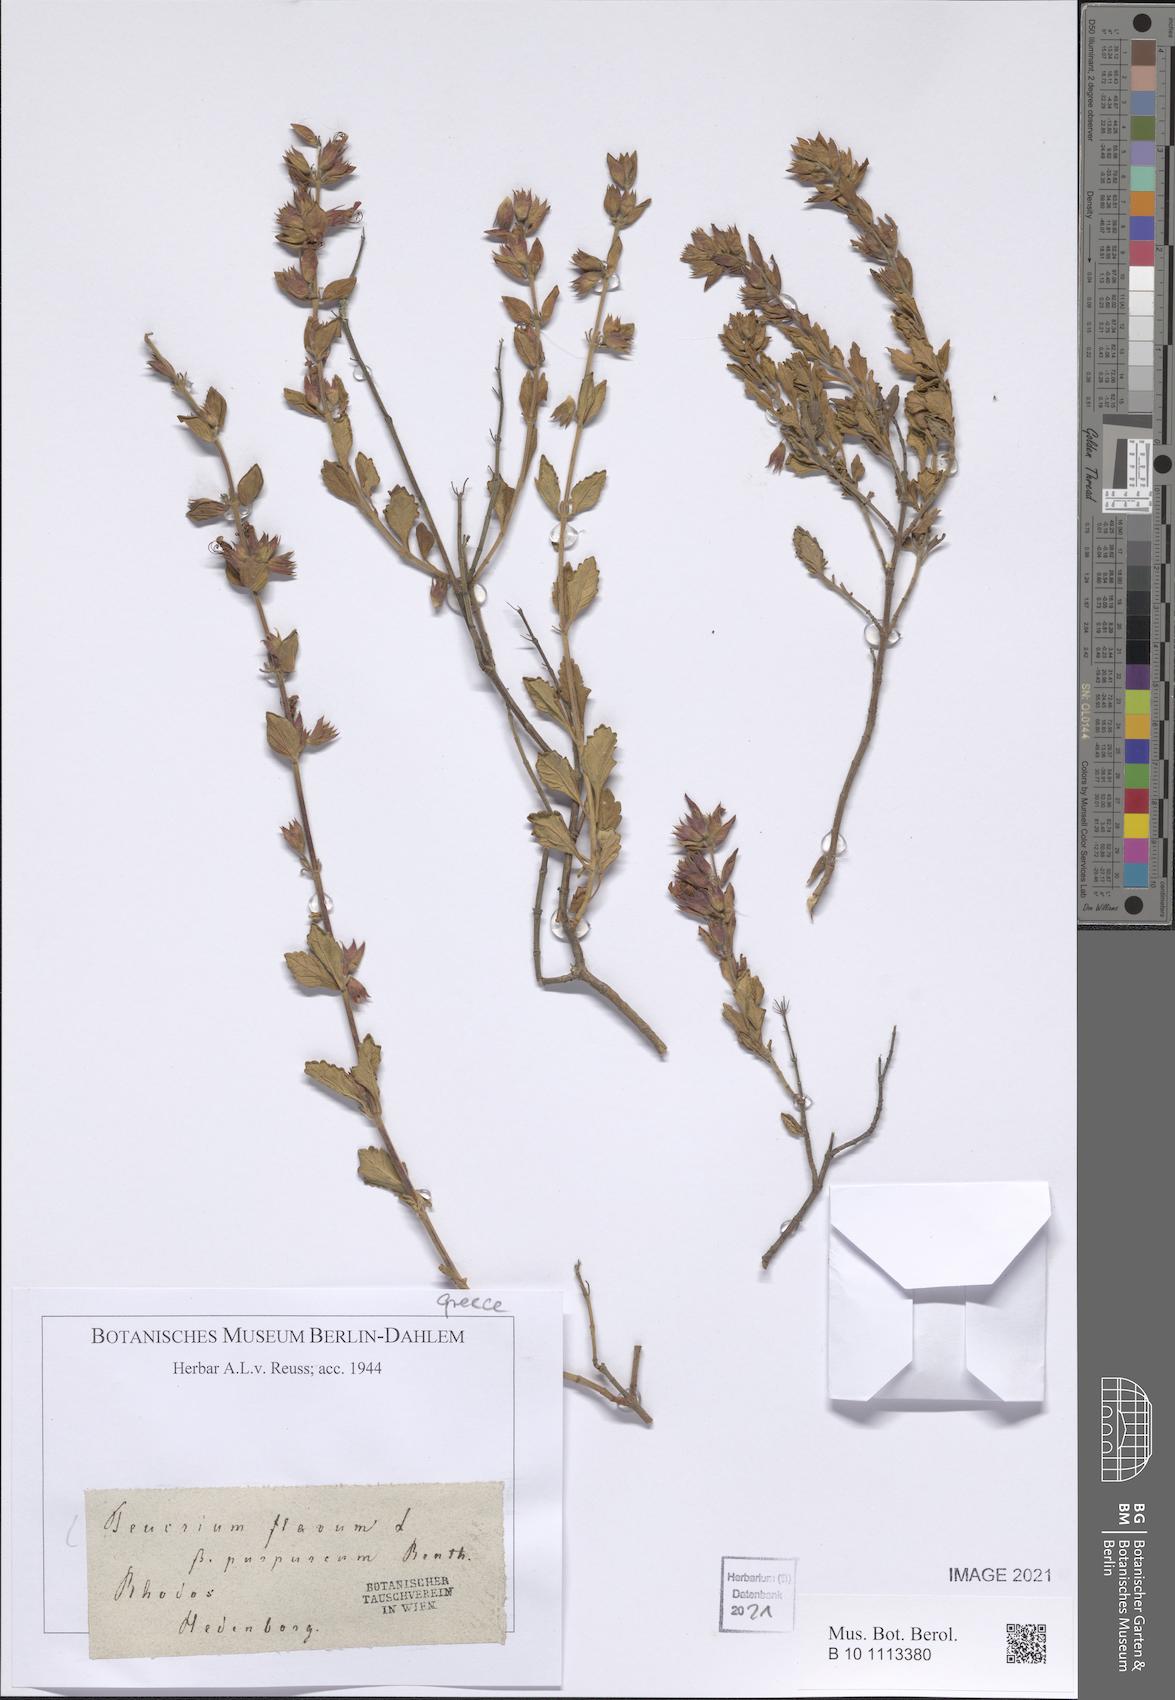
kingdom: Plantae
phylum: Tracheophyta
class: Magnoliopsida
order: Lamiales
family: Lamiaceae
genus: Teucrium
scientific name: Teucrium flavum
